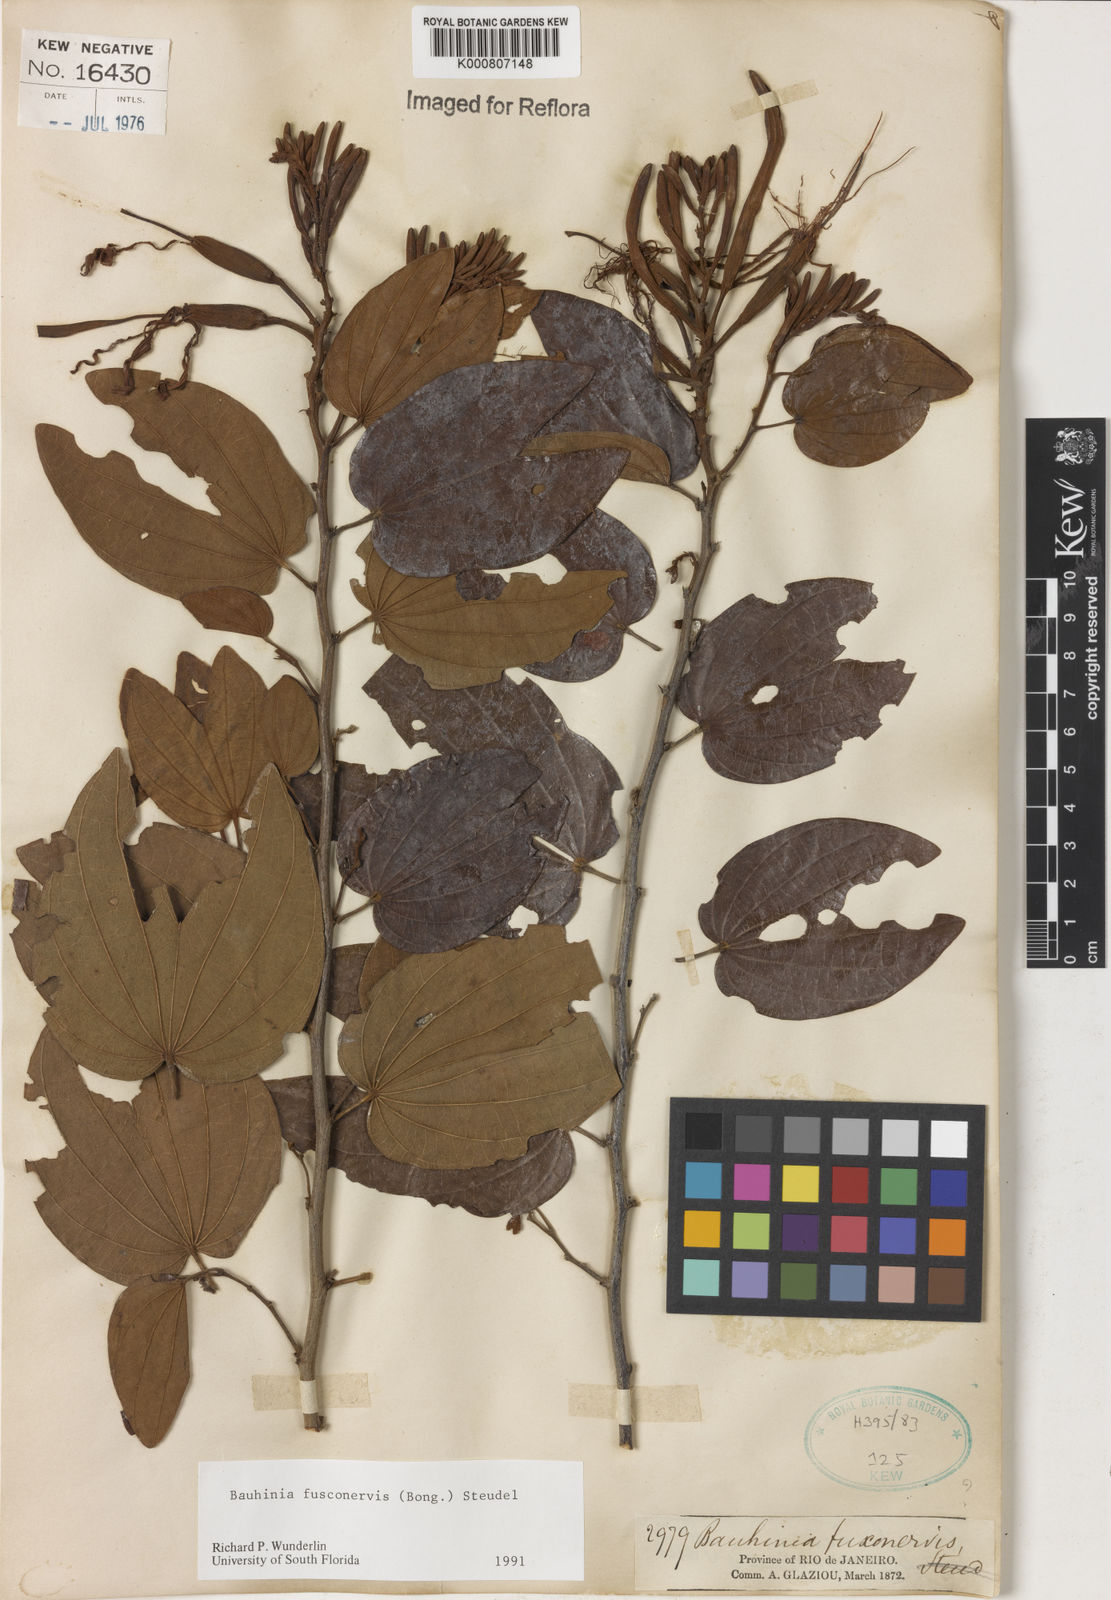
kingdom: Plantae
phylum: Tracheophyta
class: Magnoliopsida
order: Fabales
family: Fabaceae
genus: Bauhinia
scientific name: Bauhinia
